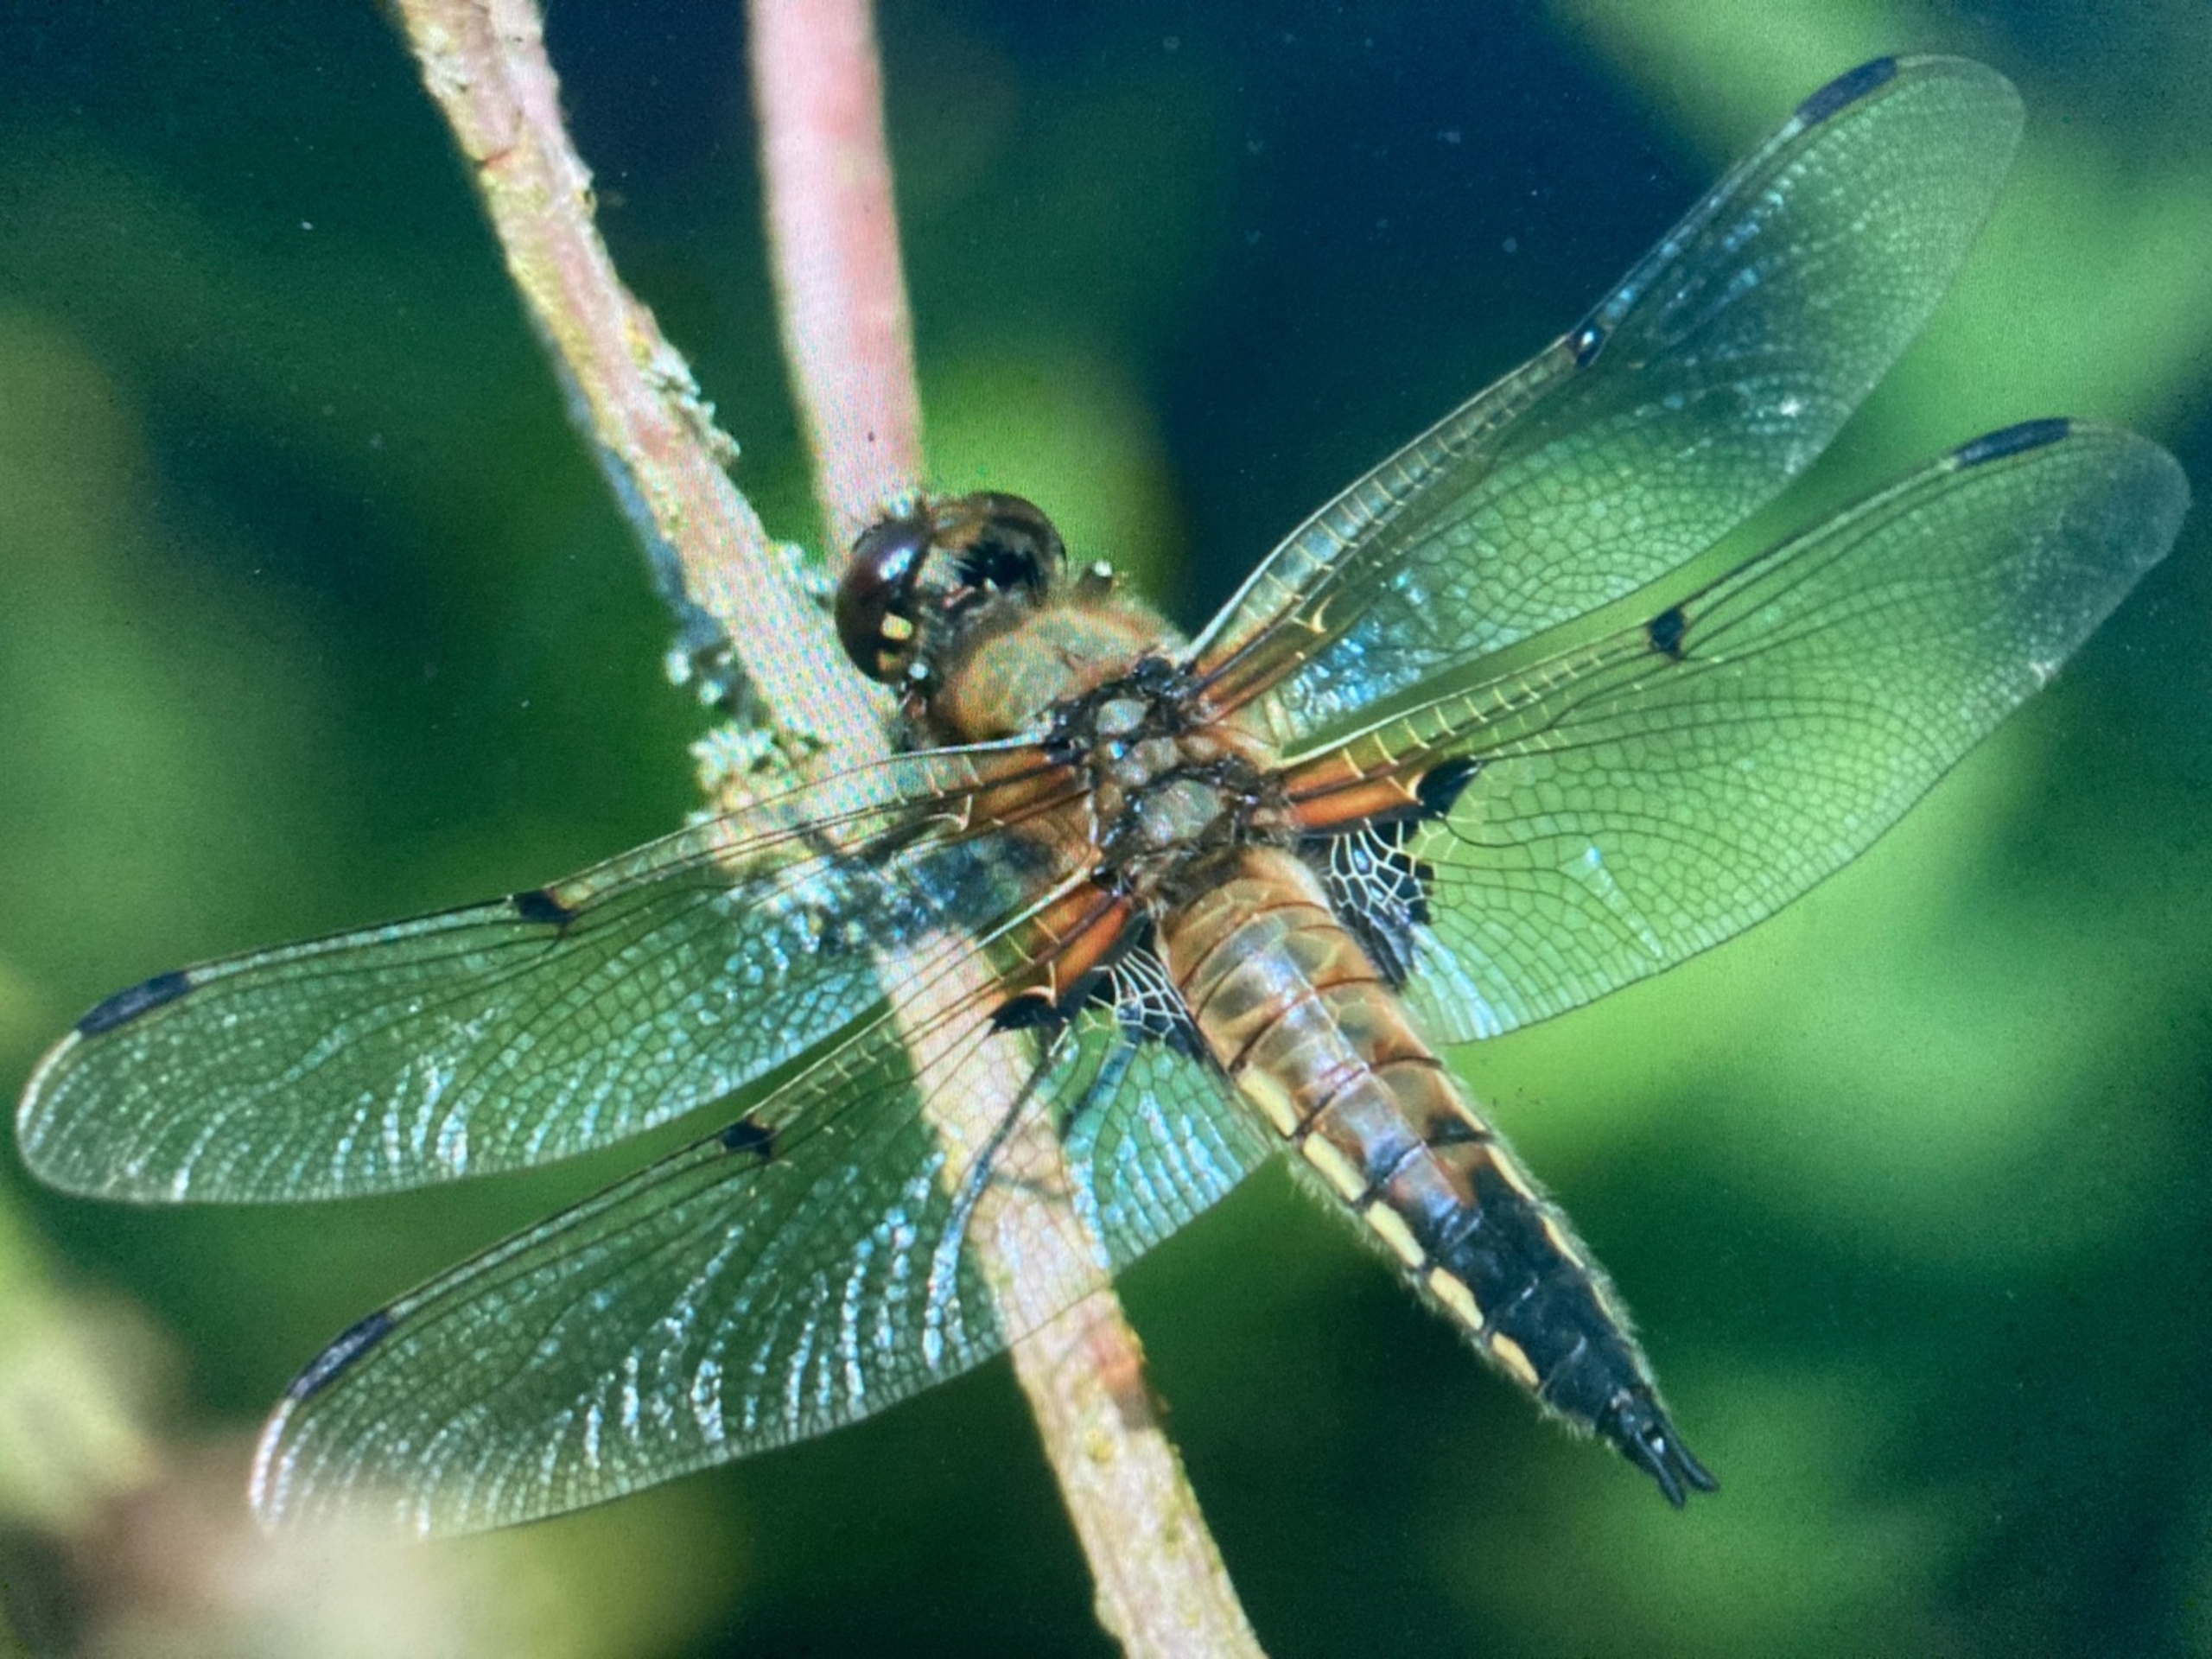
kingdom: Animalia
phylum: Arthropoda
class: Insecta
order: Odonata
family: Libellulidae
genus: Libellula
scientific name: Libellula quadrimaculata
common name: Fireplettet libel
